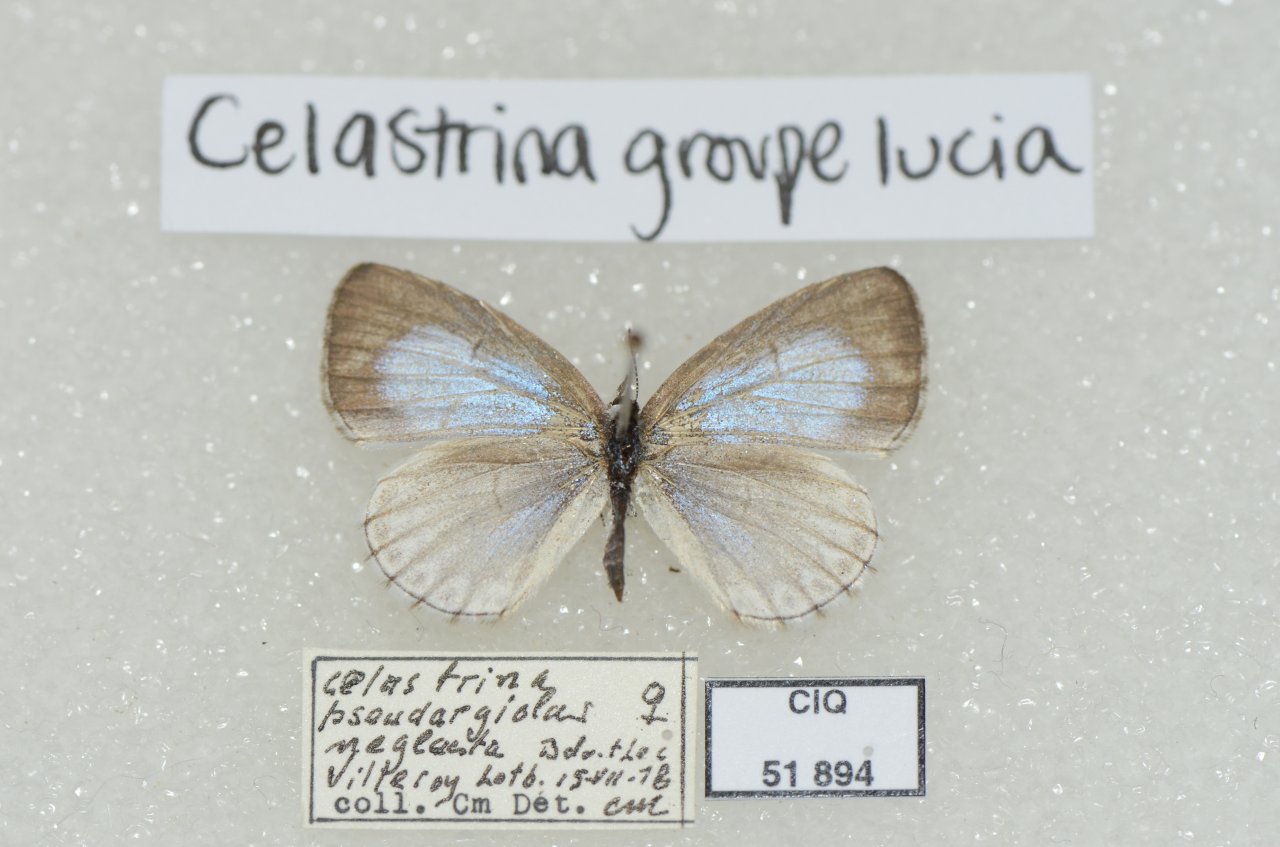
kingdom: Animalia
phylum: Arthropoda
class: Insecta
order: Lepidoptera
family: Lycaenidae
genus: Celastrina
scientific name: Celastrina lucia
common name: Northern Spring Azure
